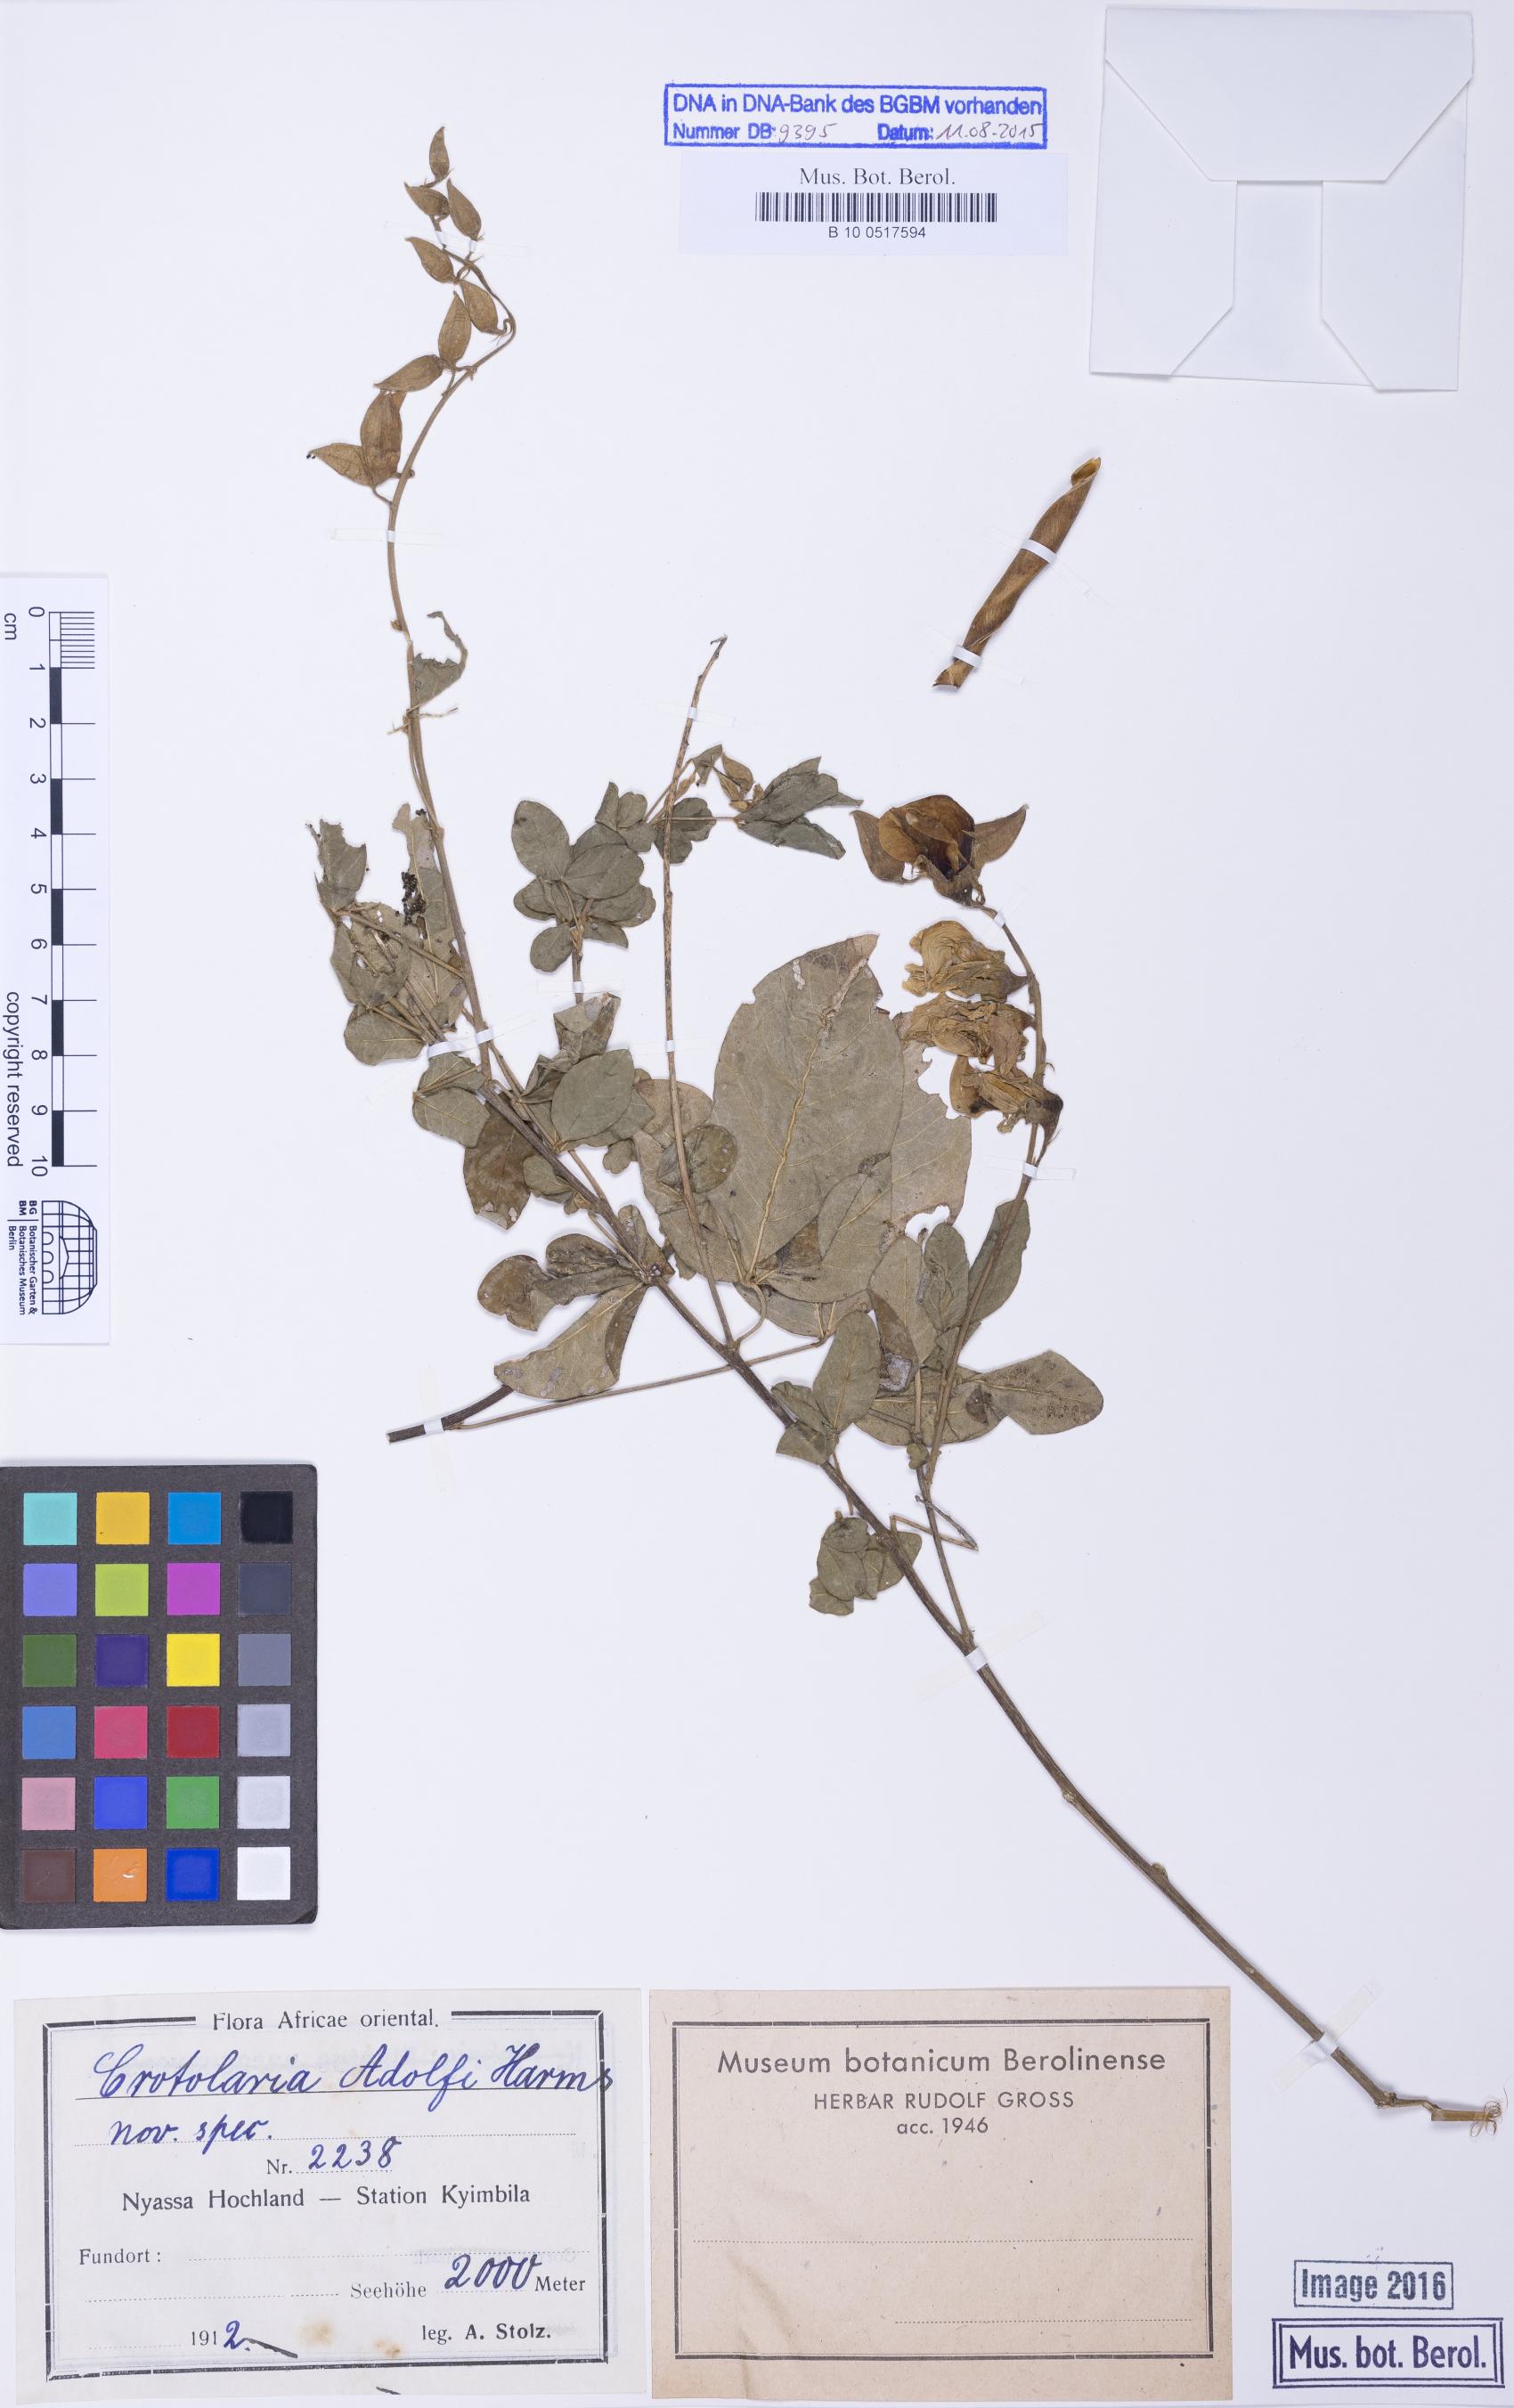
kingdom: Plantae
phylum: Tracheophyta
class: Magnoliopsida
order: Fabales
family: Fabaceae
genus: Crotalaria
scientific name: Crotalaria adolfi
